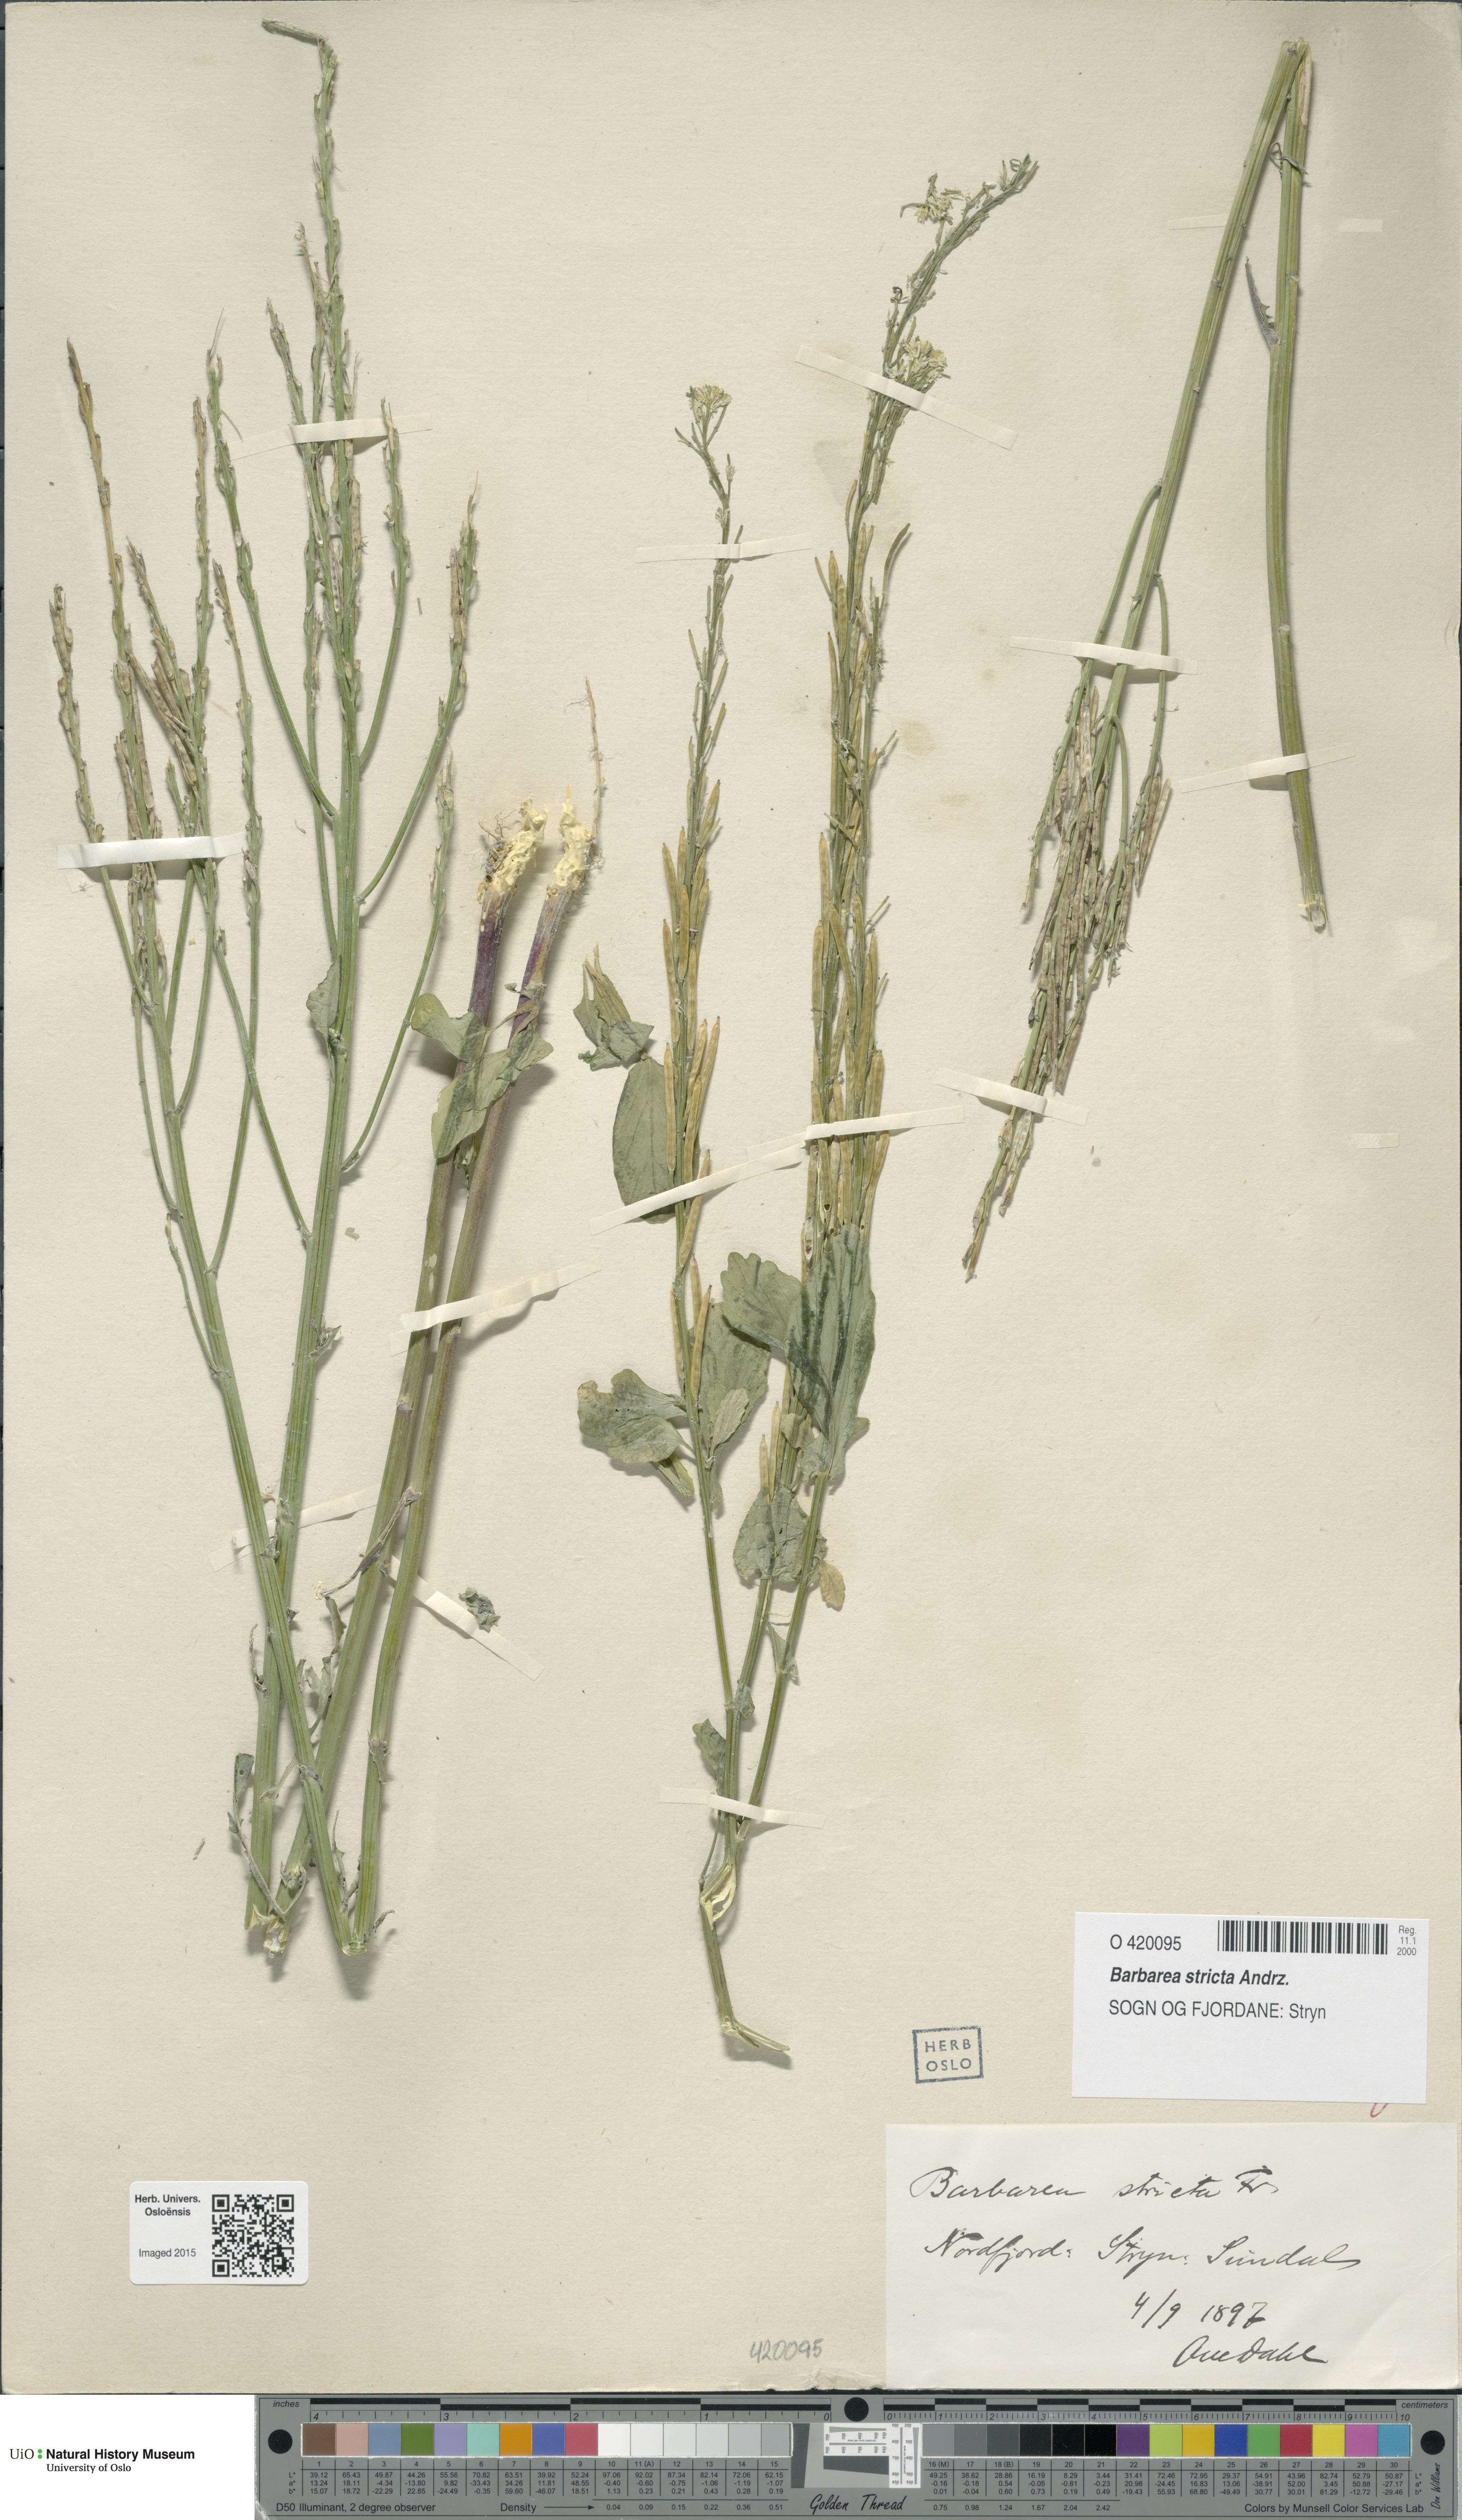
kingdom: Plantae
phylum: Tracheophyta
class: Magnoliopsida
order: Brassicales
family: Brassicaceae
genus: Barbarea
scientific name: Barbarea stricta
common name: Small-flowered winter-cress
